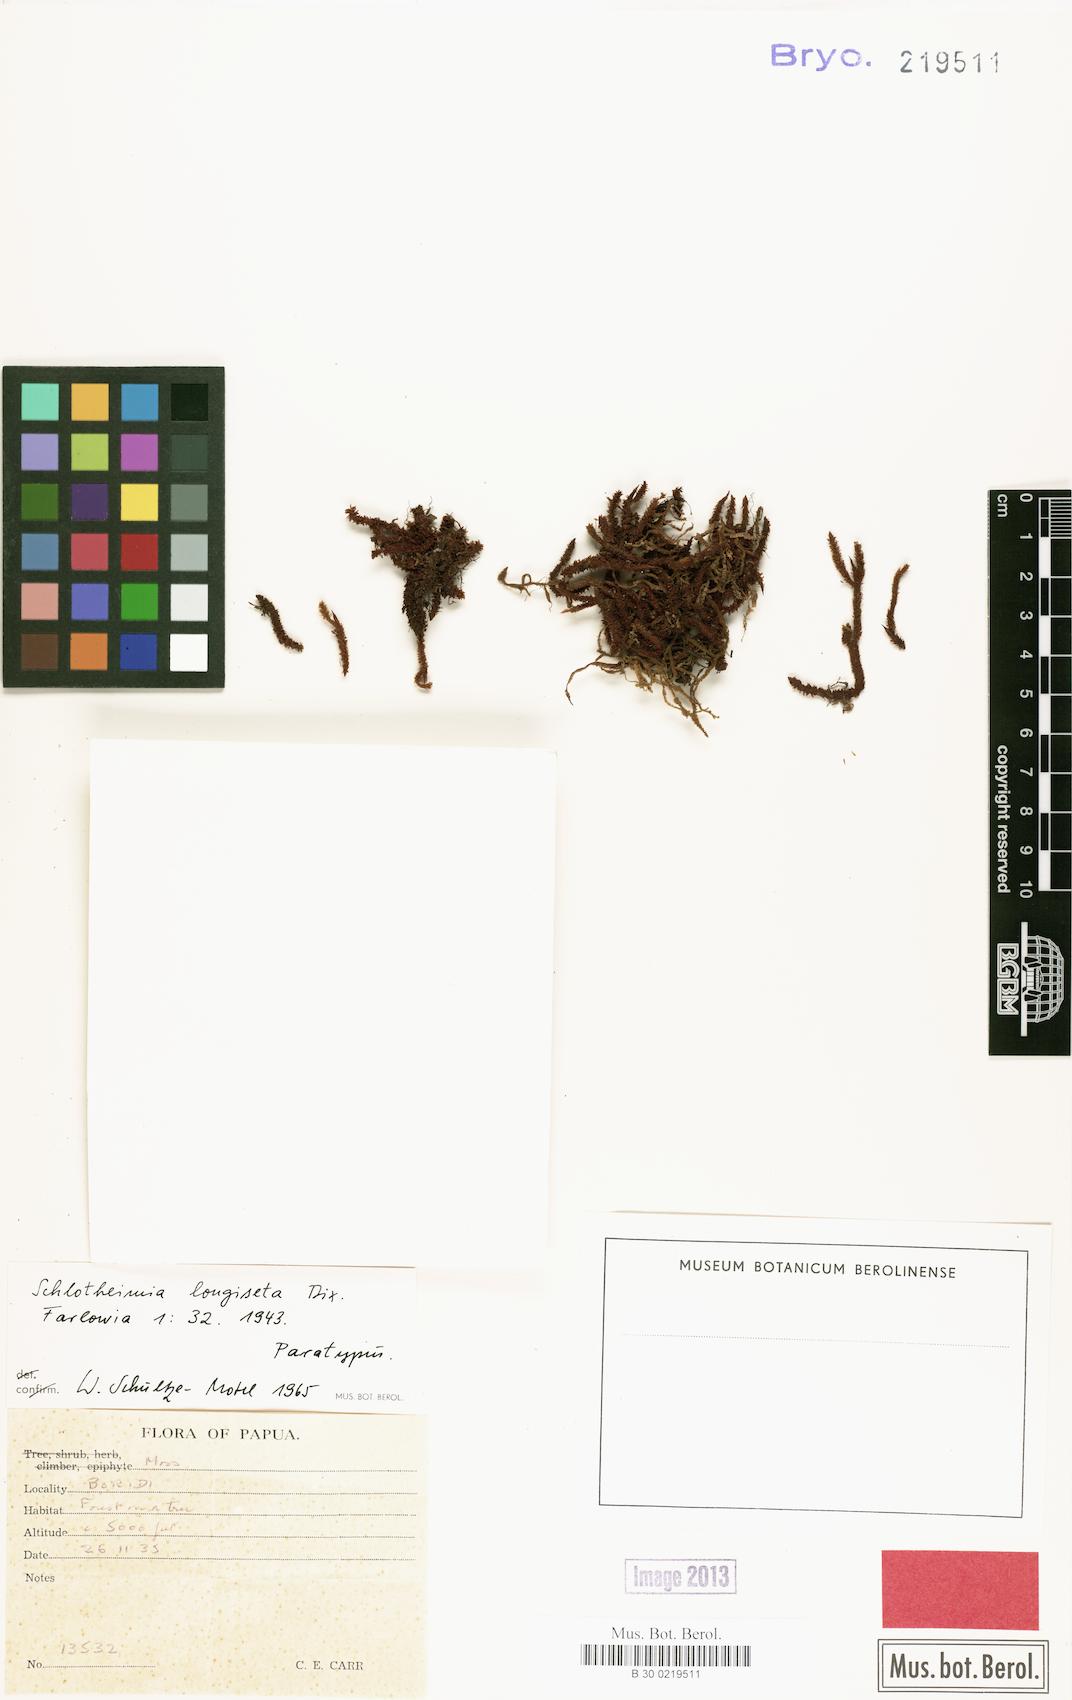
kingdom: Plantae
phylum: Bryophyta
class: Bryopsida
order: Orthotrichales
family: Orthotrichaceae
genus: Schlotheimia
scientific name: Schlotheimia macgregorii
